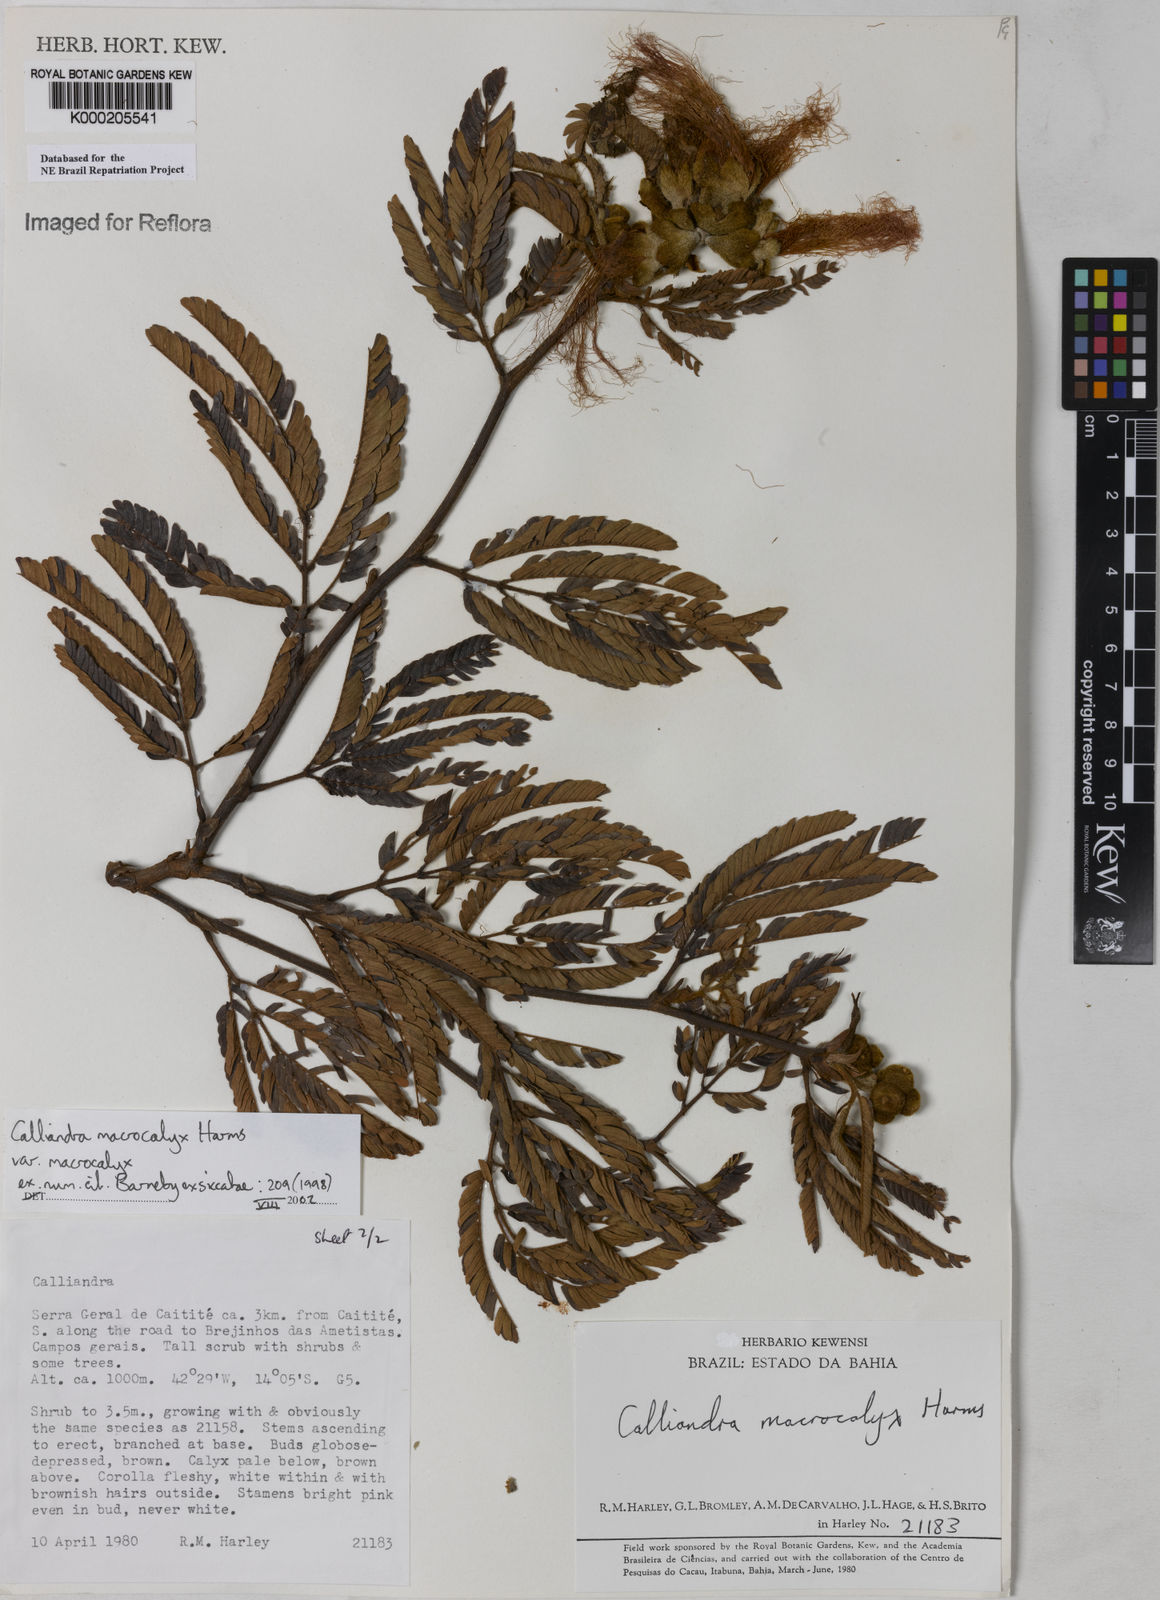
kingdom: Plantae
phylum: Tracheophyta
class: Magnoliopsida
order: Fabales
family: Fabaceae
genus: Calliandra
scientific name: Calliandra macrocalyx
